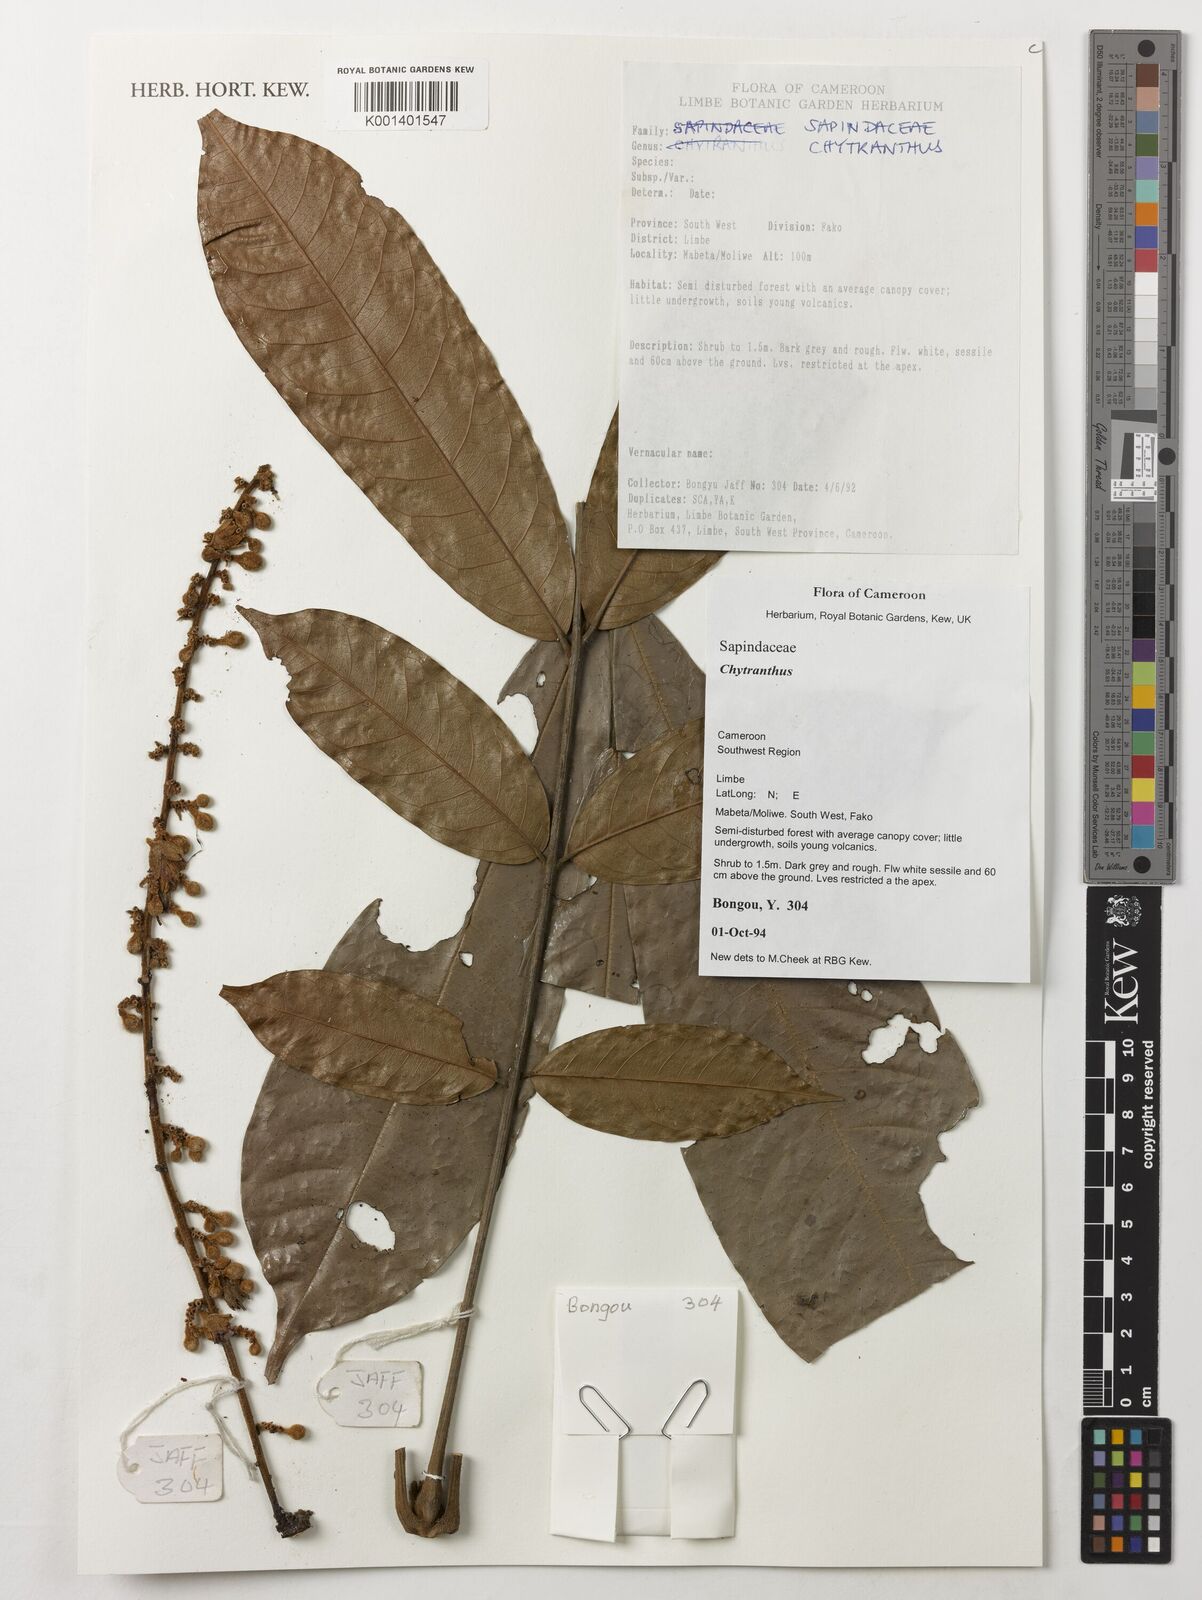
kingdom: Plantae
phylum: Tracheophyta
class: Magnoliopsida
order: Sapindales
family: Sapindaceae
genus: Chytranthus
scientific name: Chytranthus
